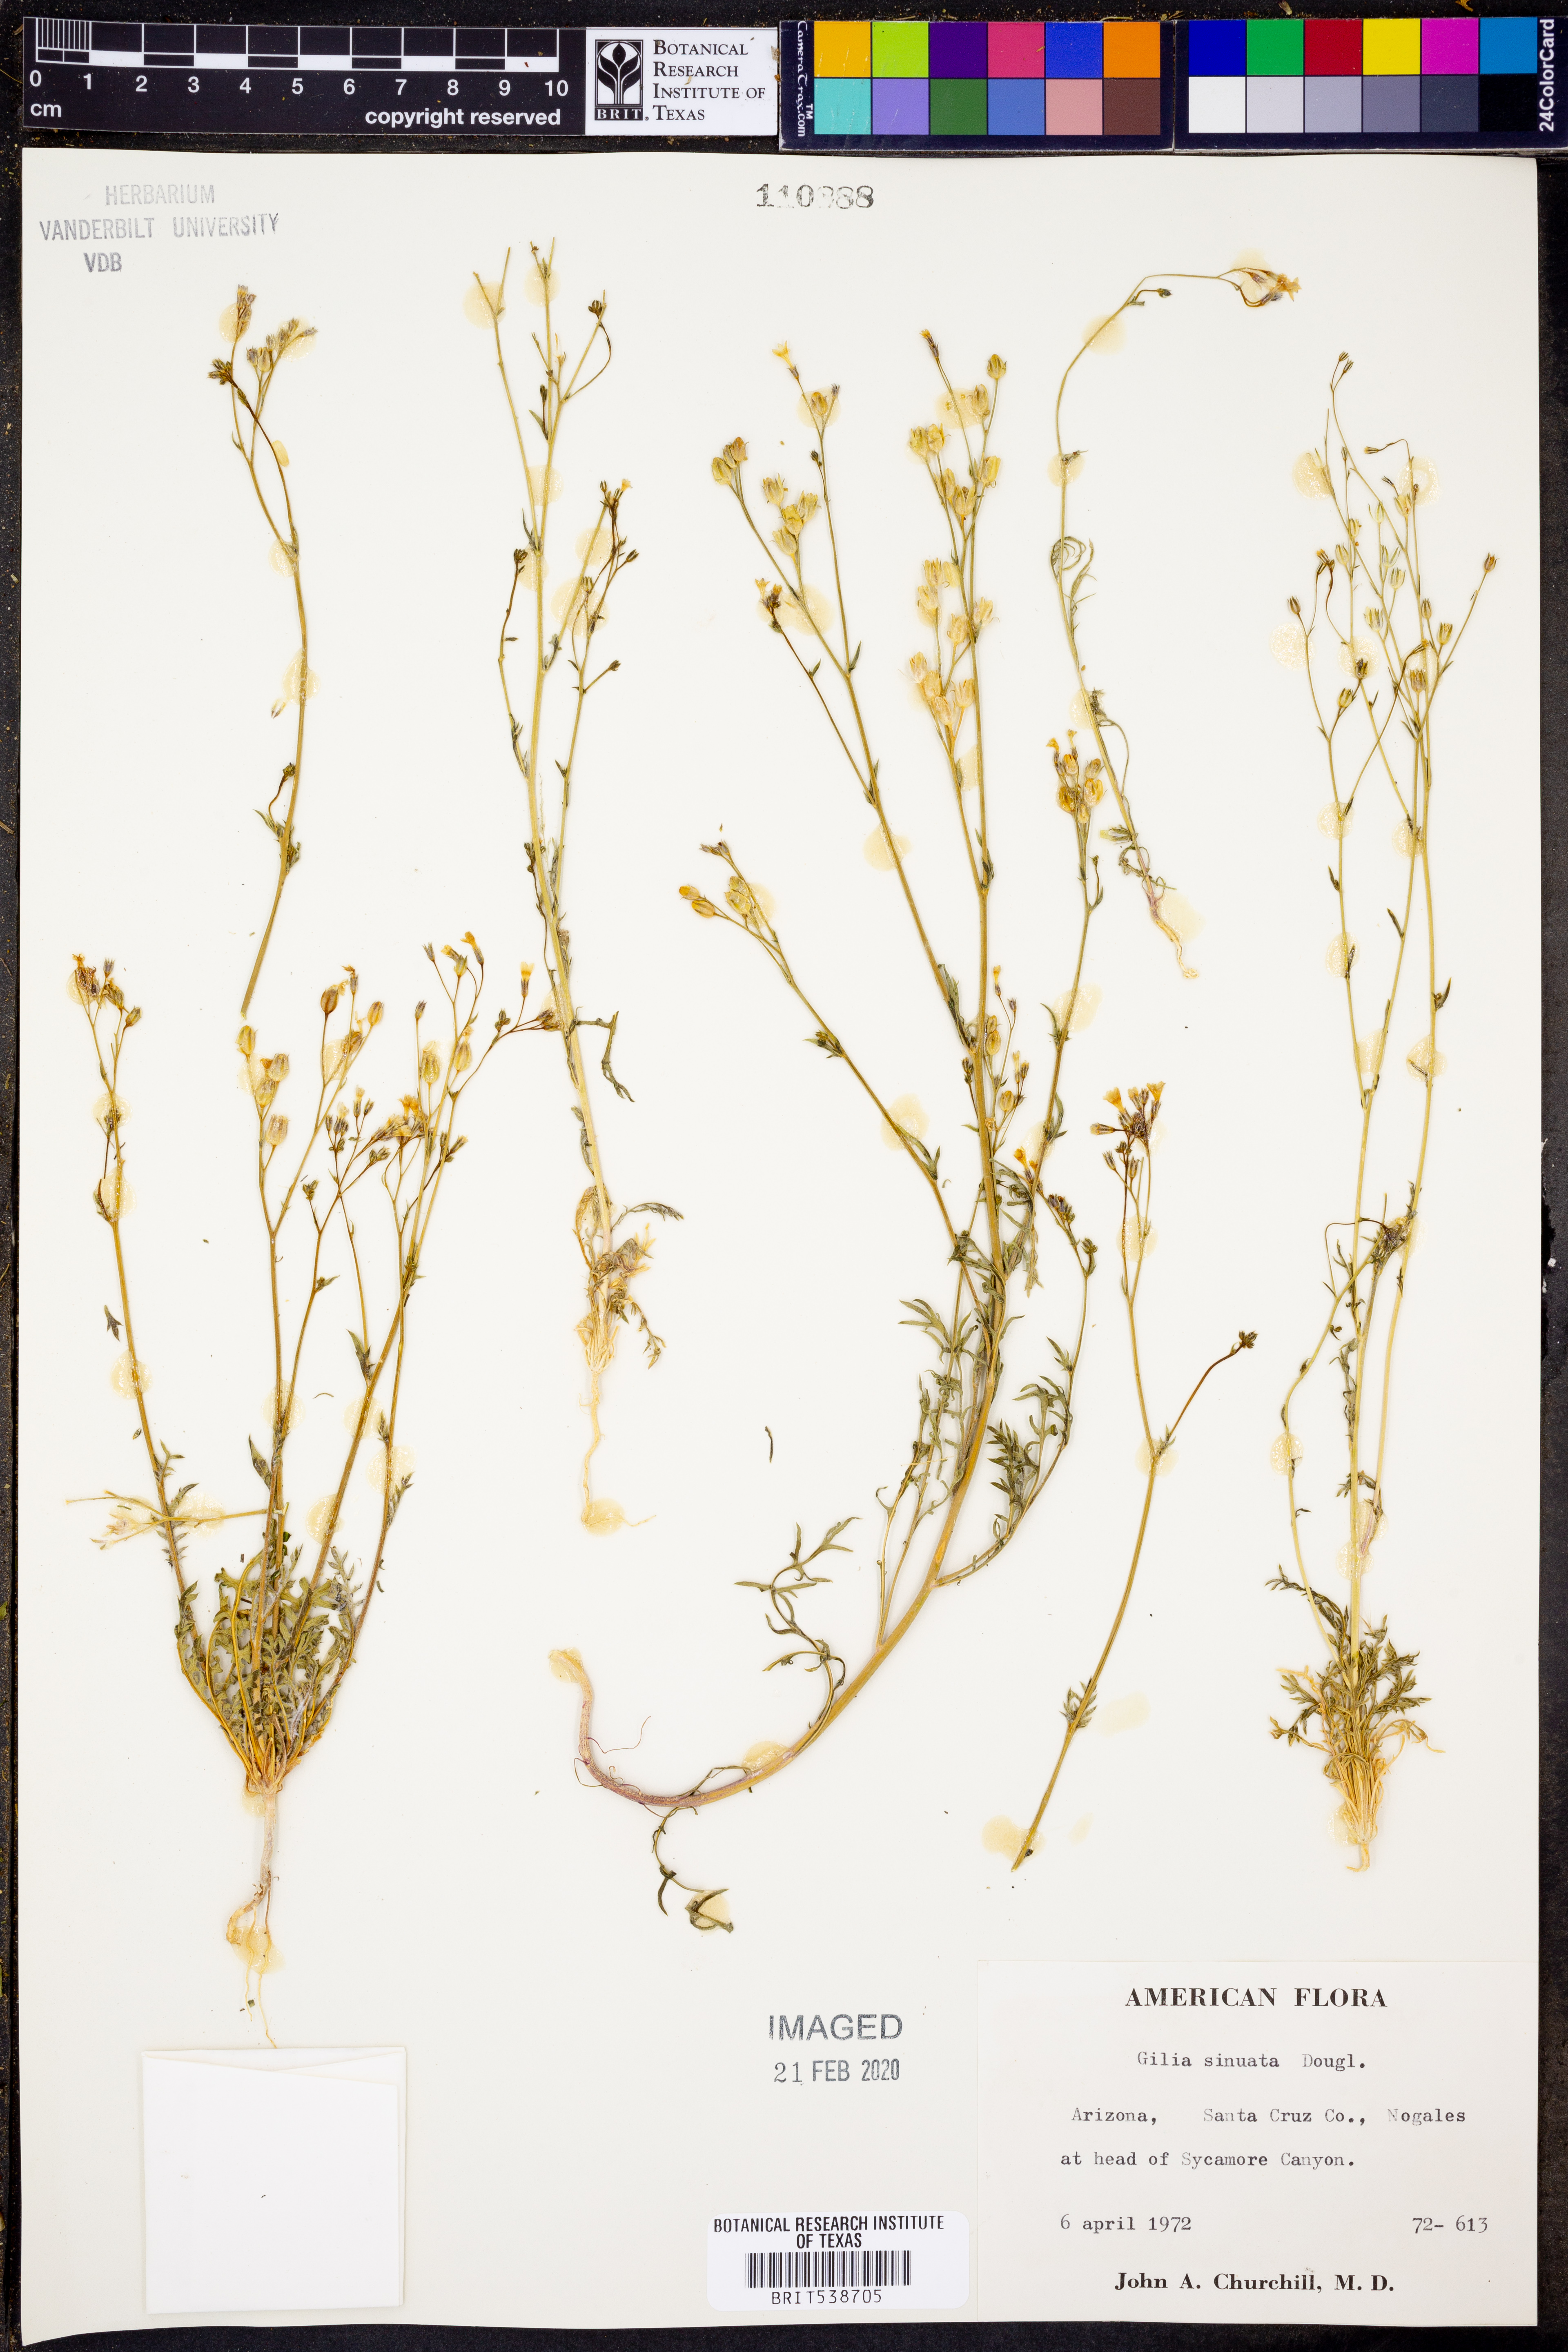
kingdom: Plantae
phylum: Tracheophyta
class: Magnoliopsida
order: Ericales
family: Polemoniaceae
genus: Gilia
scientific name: Gilia sinuata
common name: Rosy gilia
